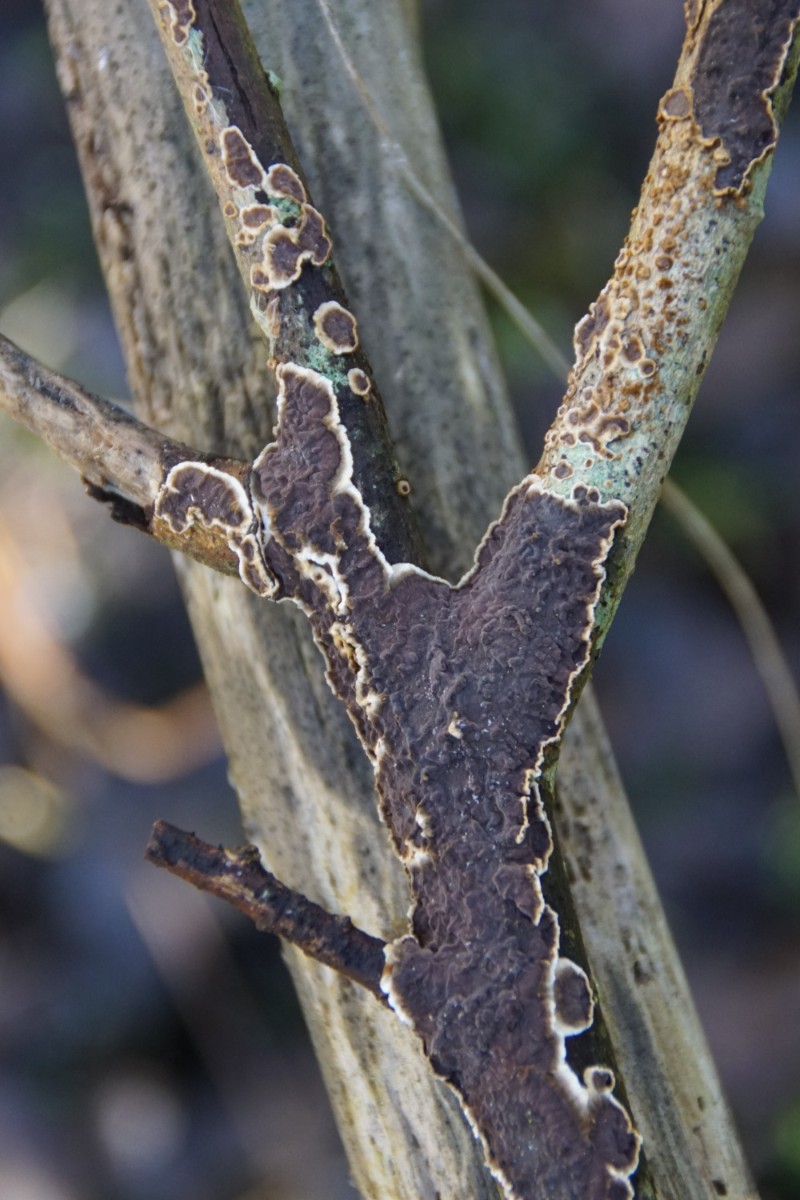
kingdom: Fungi
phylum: Basidiomycota
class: Agaricomycetes
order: Hymenochaetales
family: Hymenochaetaceae
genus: Hydnoporia
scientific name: Hydnoporia tabacina
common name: tobaksbrun ruslædersvamp
